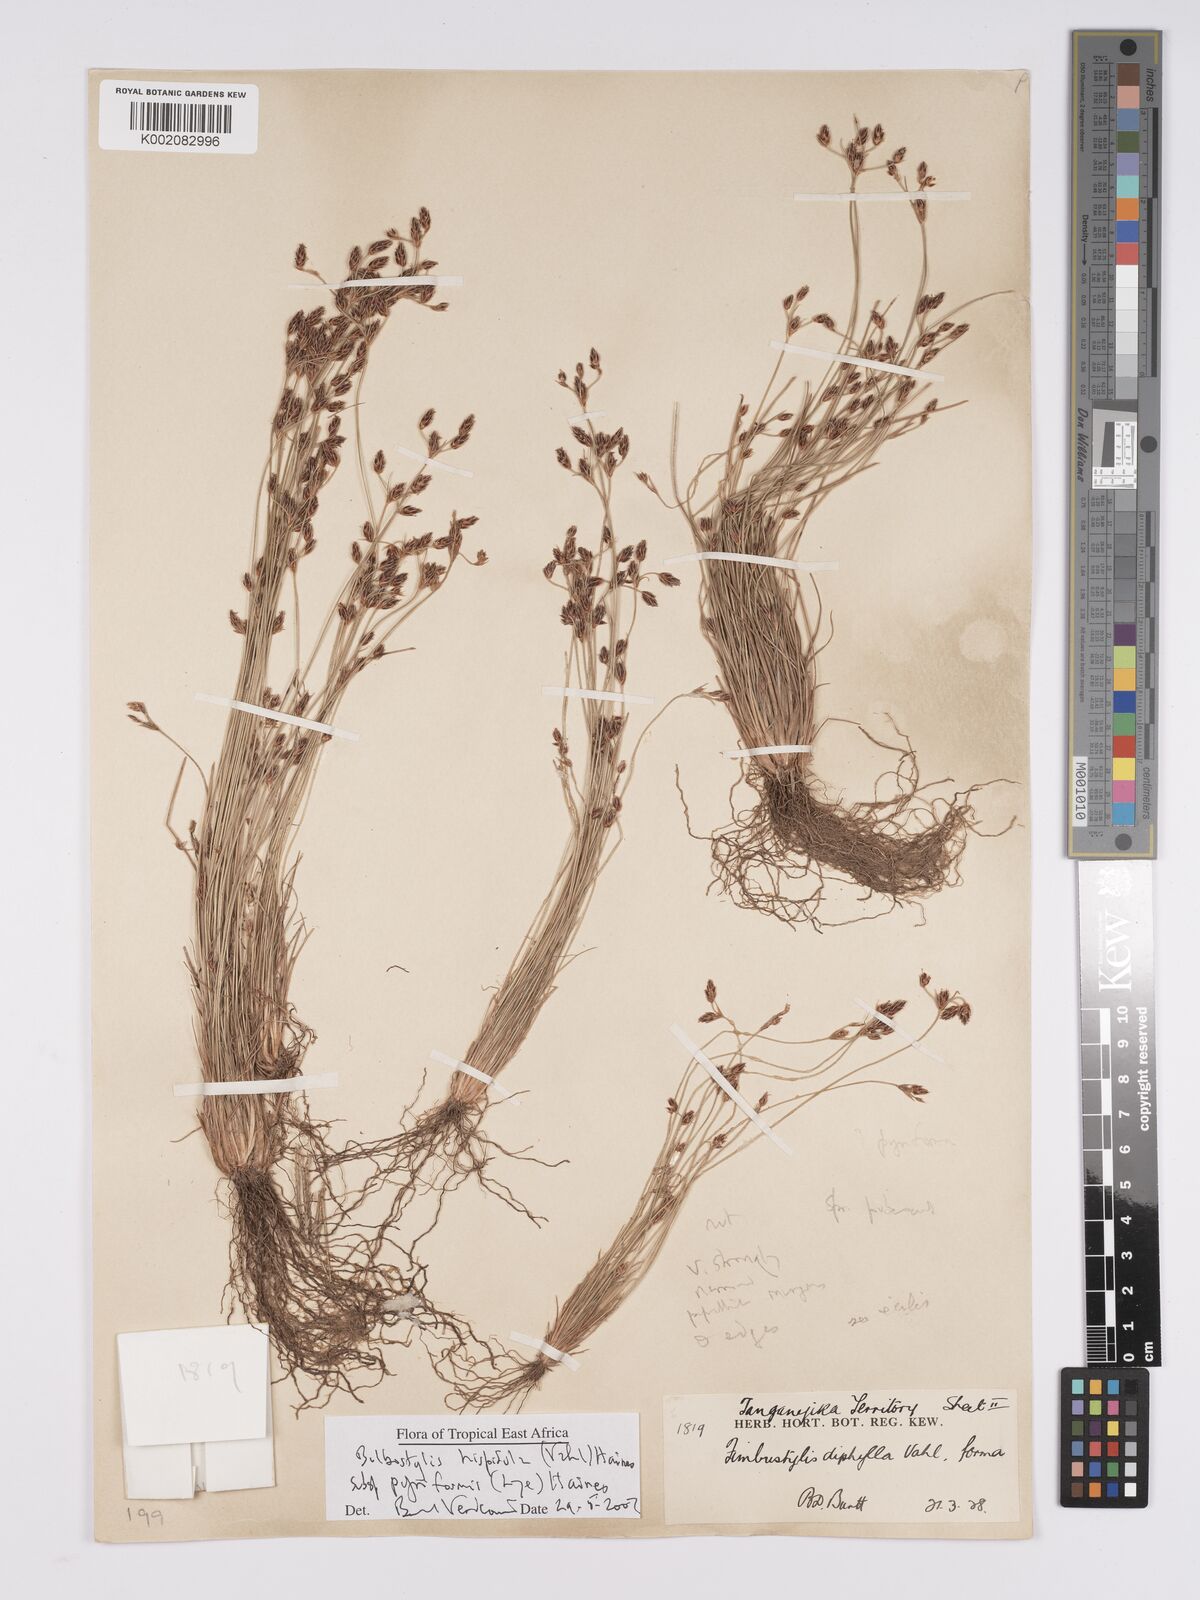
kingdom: Plantae
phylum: Tracheophyta
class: Liliopsida
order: Poales
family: Cyperaceae
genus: Bulbostylis
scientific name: Bulbostylis hispidula
